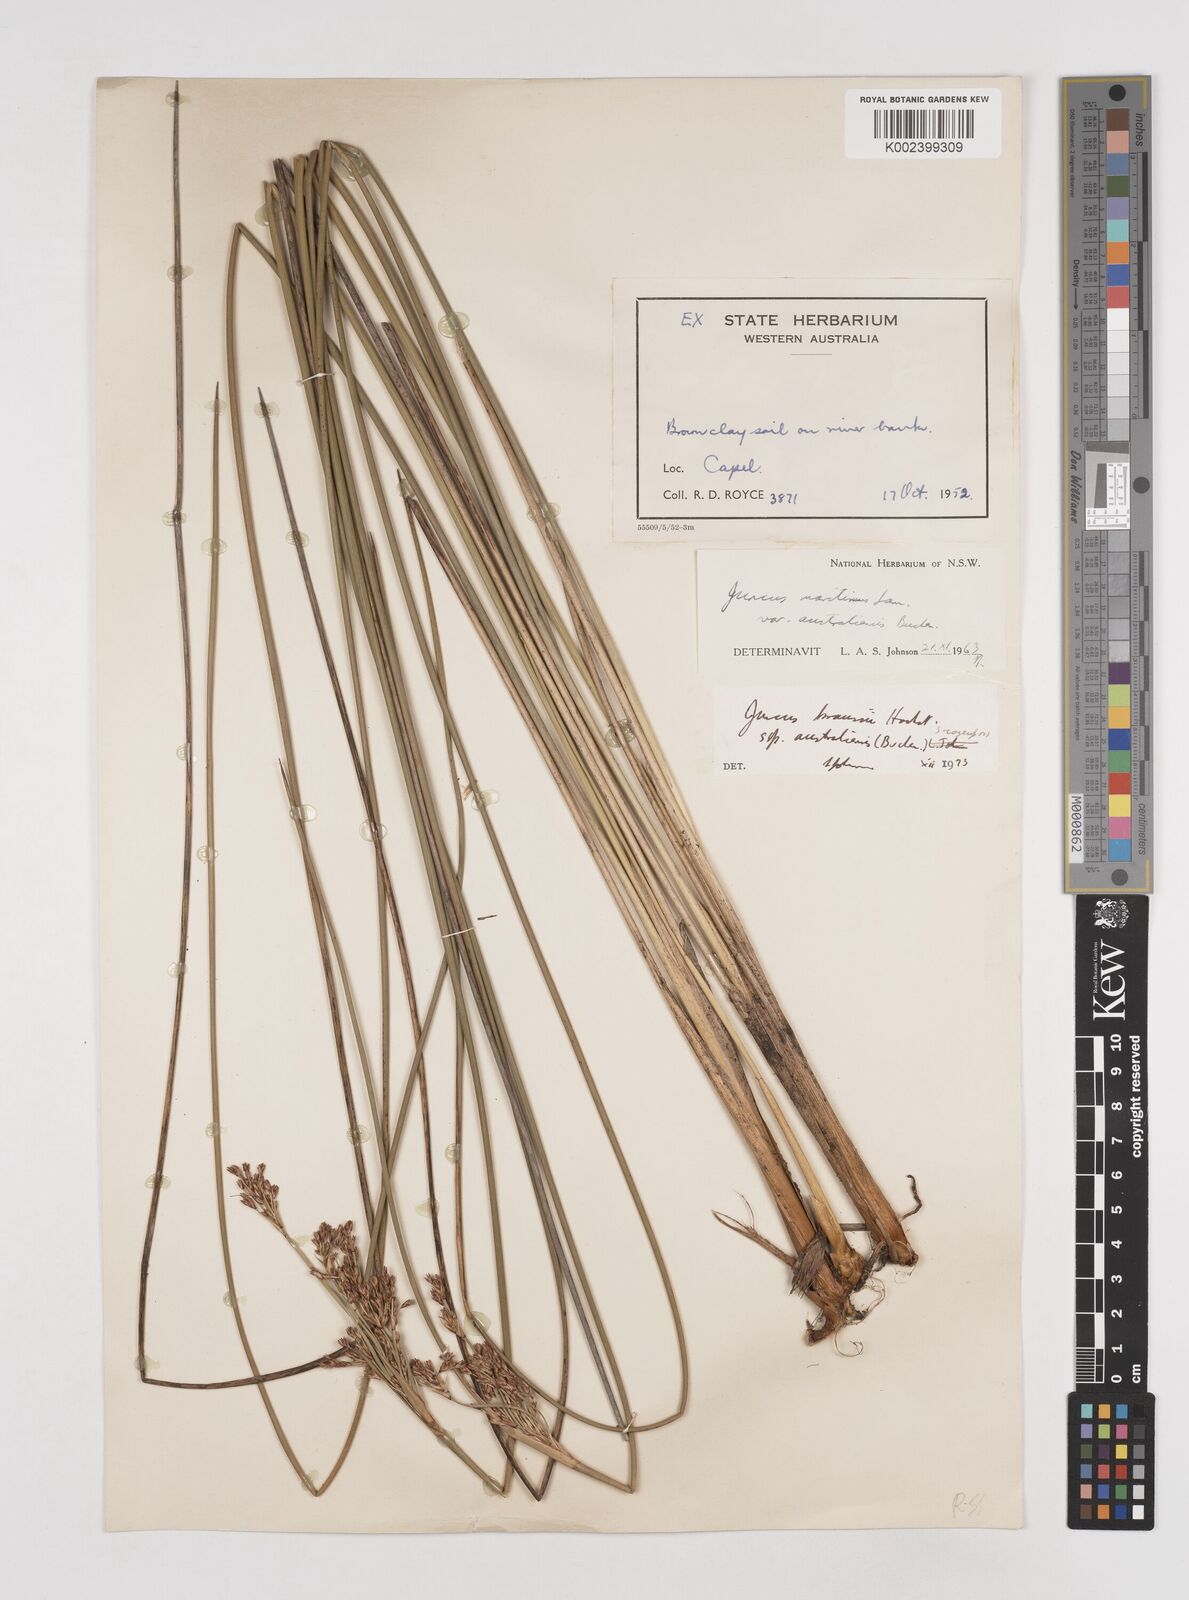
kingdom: Plantae
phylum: Tracheophyta
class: Liliopsida
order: Poales
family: Juncaceae
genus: Juncus
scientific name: Juncus kraussii
